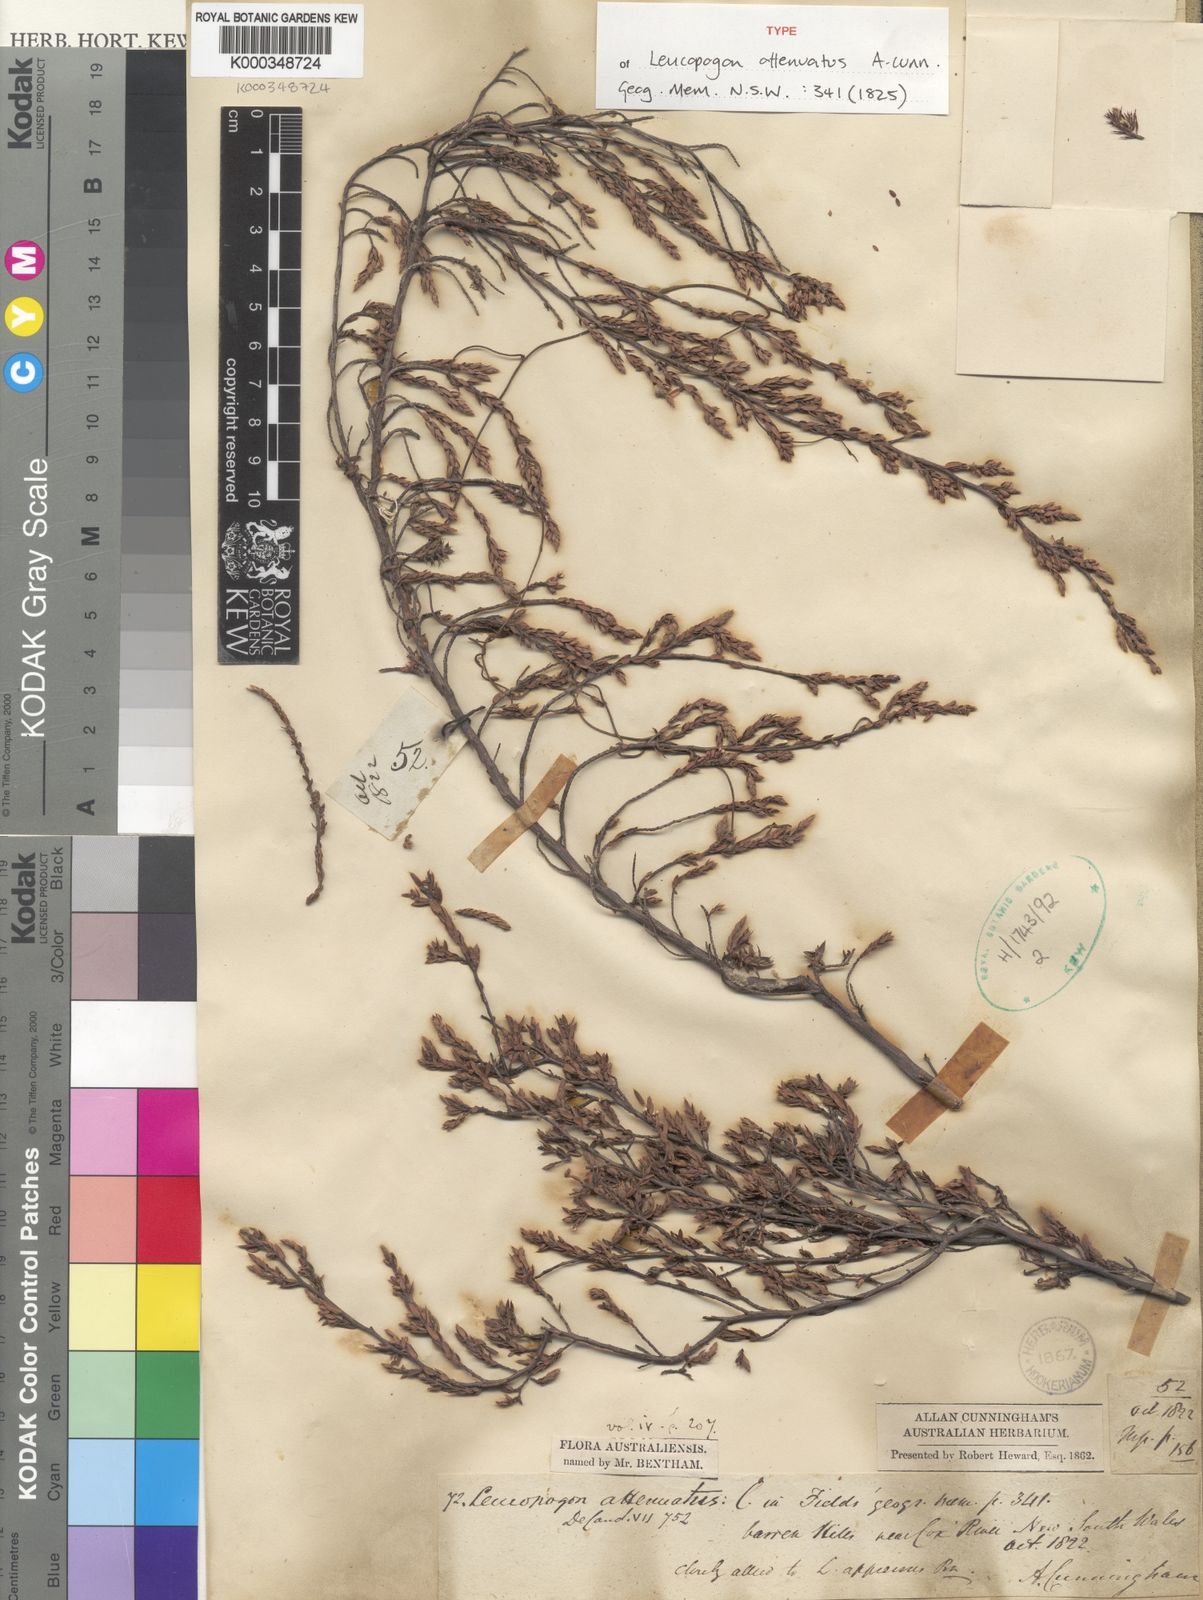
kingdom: Plantae
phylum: Tracheophyta
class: Magnoliopsida
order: Ericales
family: Ericaceae
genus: Styphelia
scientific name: Styphelia attenuata
